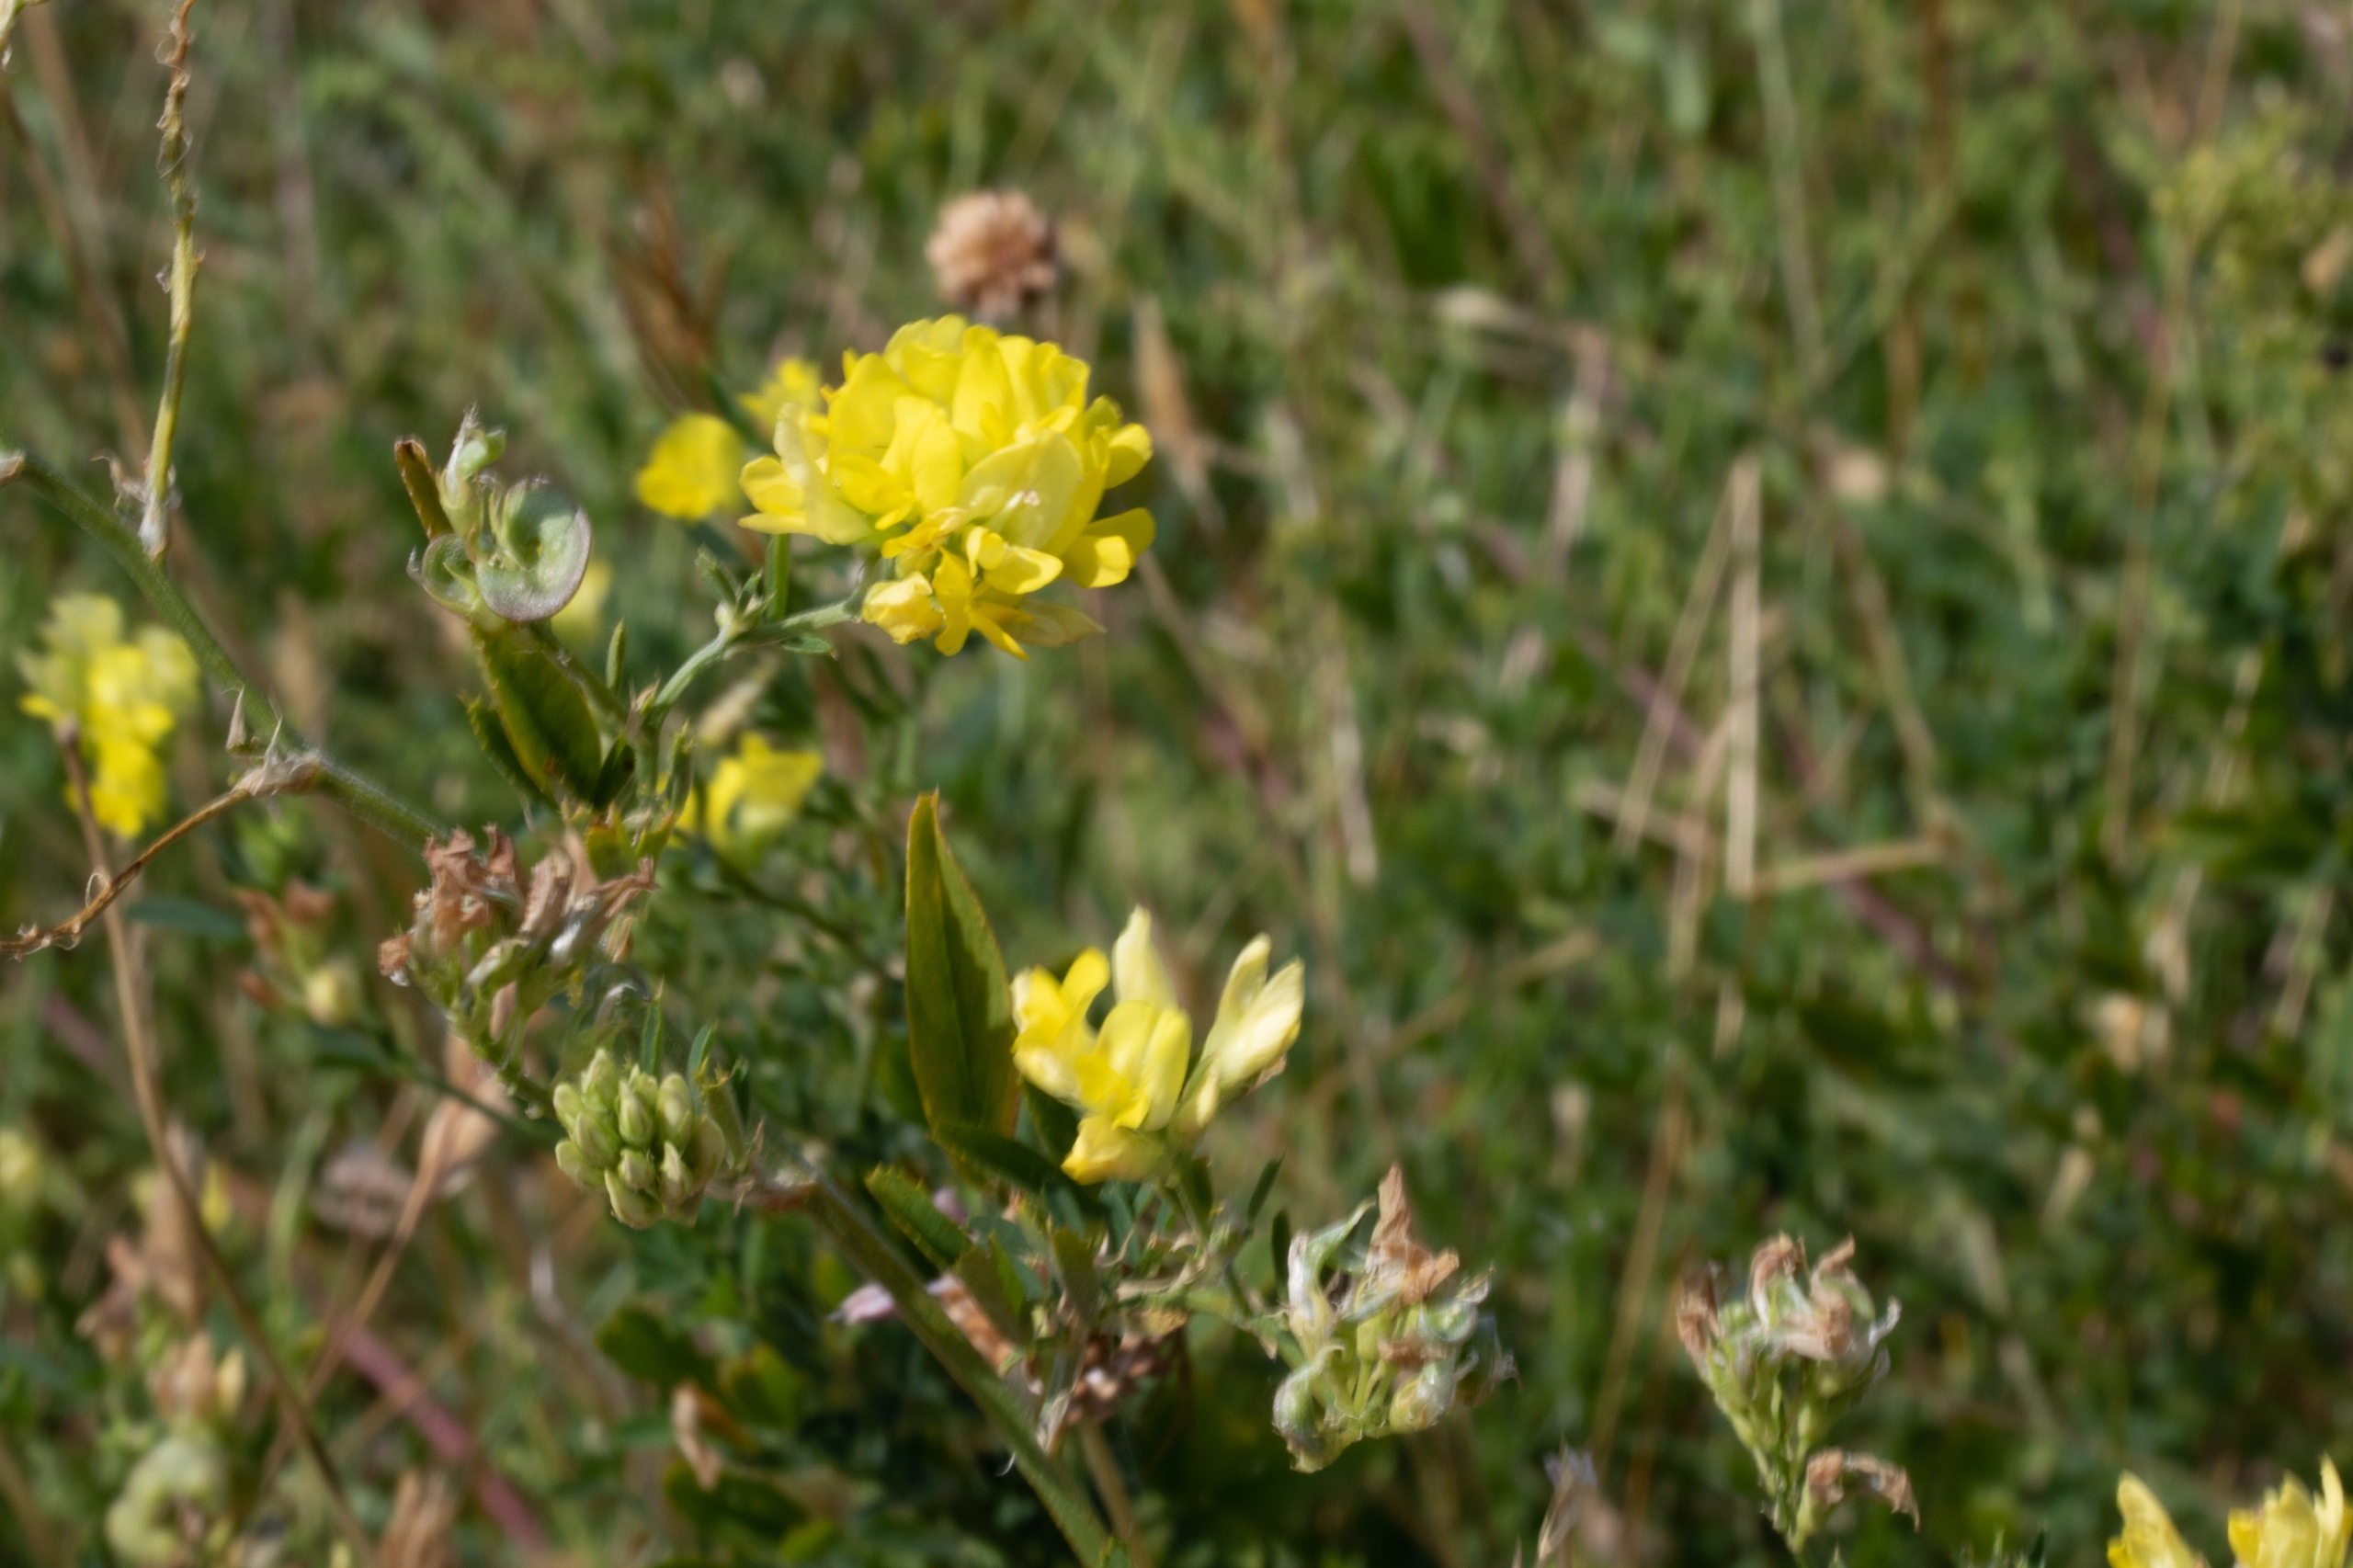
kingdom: Plantae
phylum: Tracheophyta
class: Magnoliopsida
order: Fabales
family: Fabaceae
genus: Medicago
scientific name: Medicago varia
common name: Sand-lucerne
